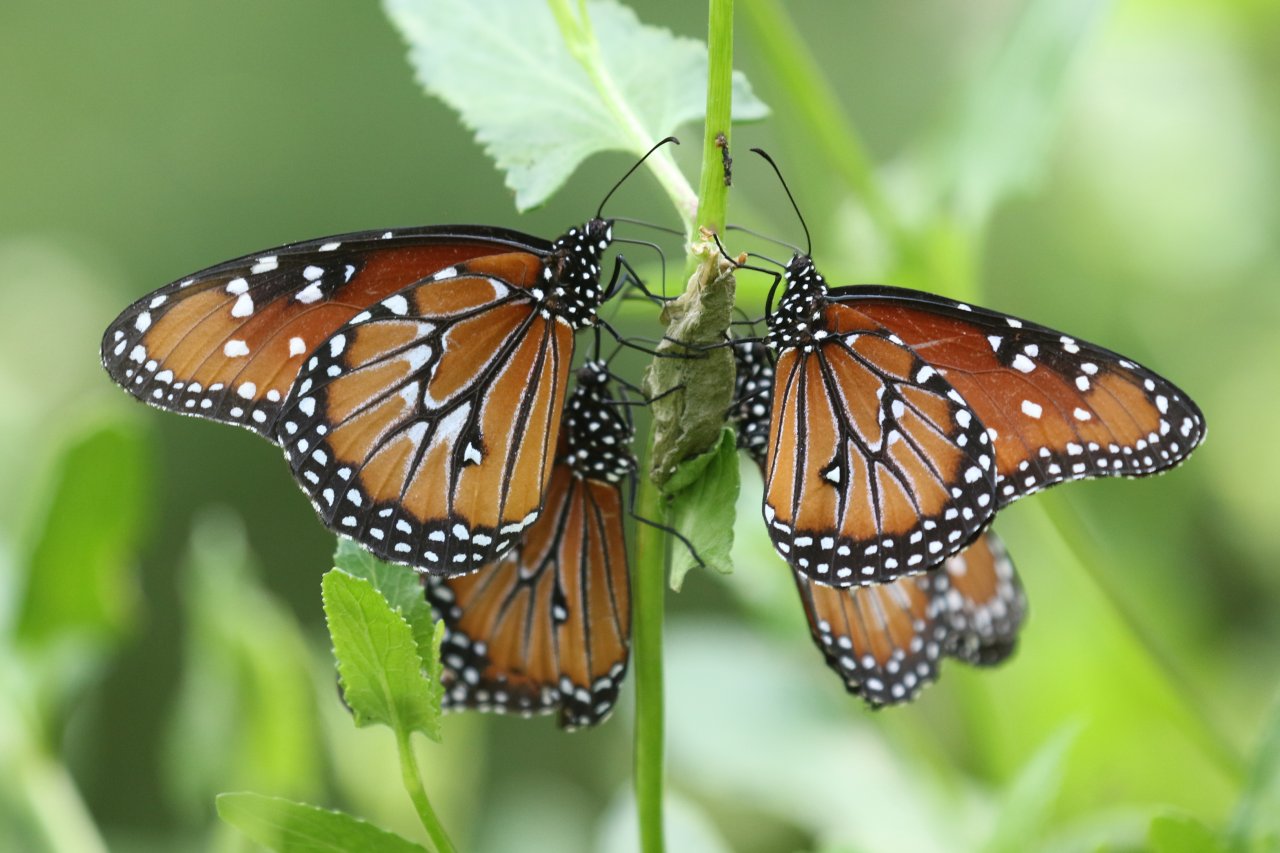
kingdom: Animalia
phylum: Arthropoda
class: Insecta
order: Lepidoptera
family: Nymphalidae
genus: Danaus
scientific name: Danaus gilippus
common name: Queen
